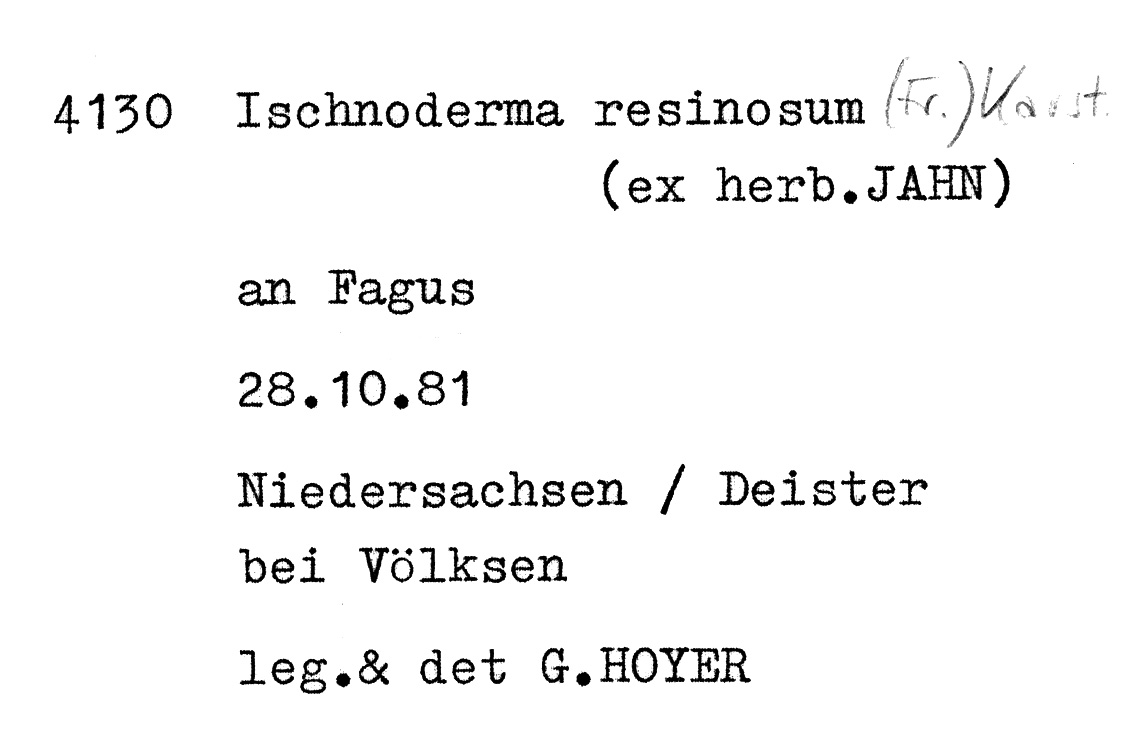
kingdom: Fungi
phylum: Basidiomycota
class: Agaricomycetes
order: Polyporales
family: Ischnodermataceae
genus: Ischnoderma
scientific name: Ischnoderma resinosum
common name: Resinous polypore
